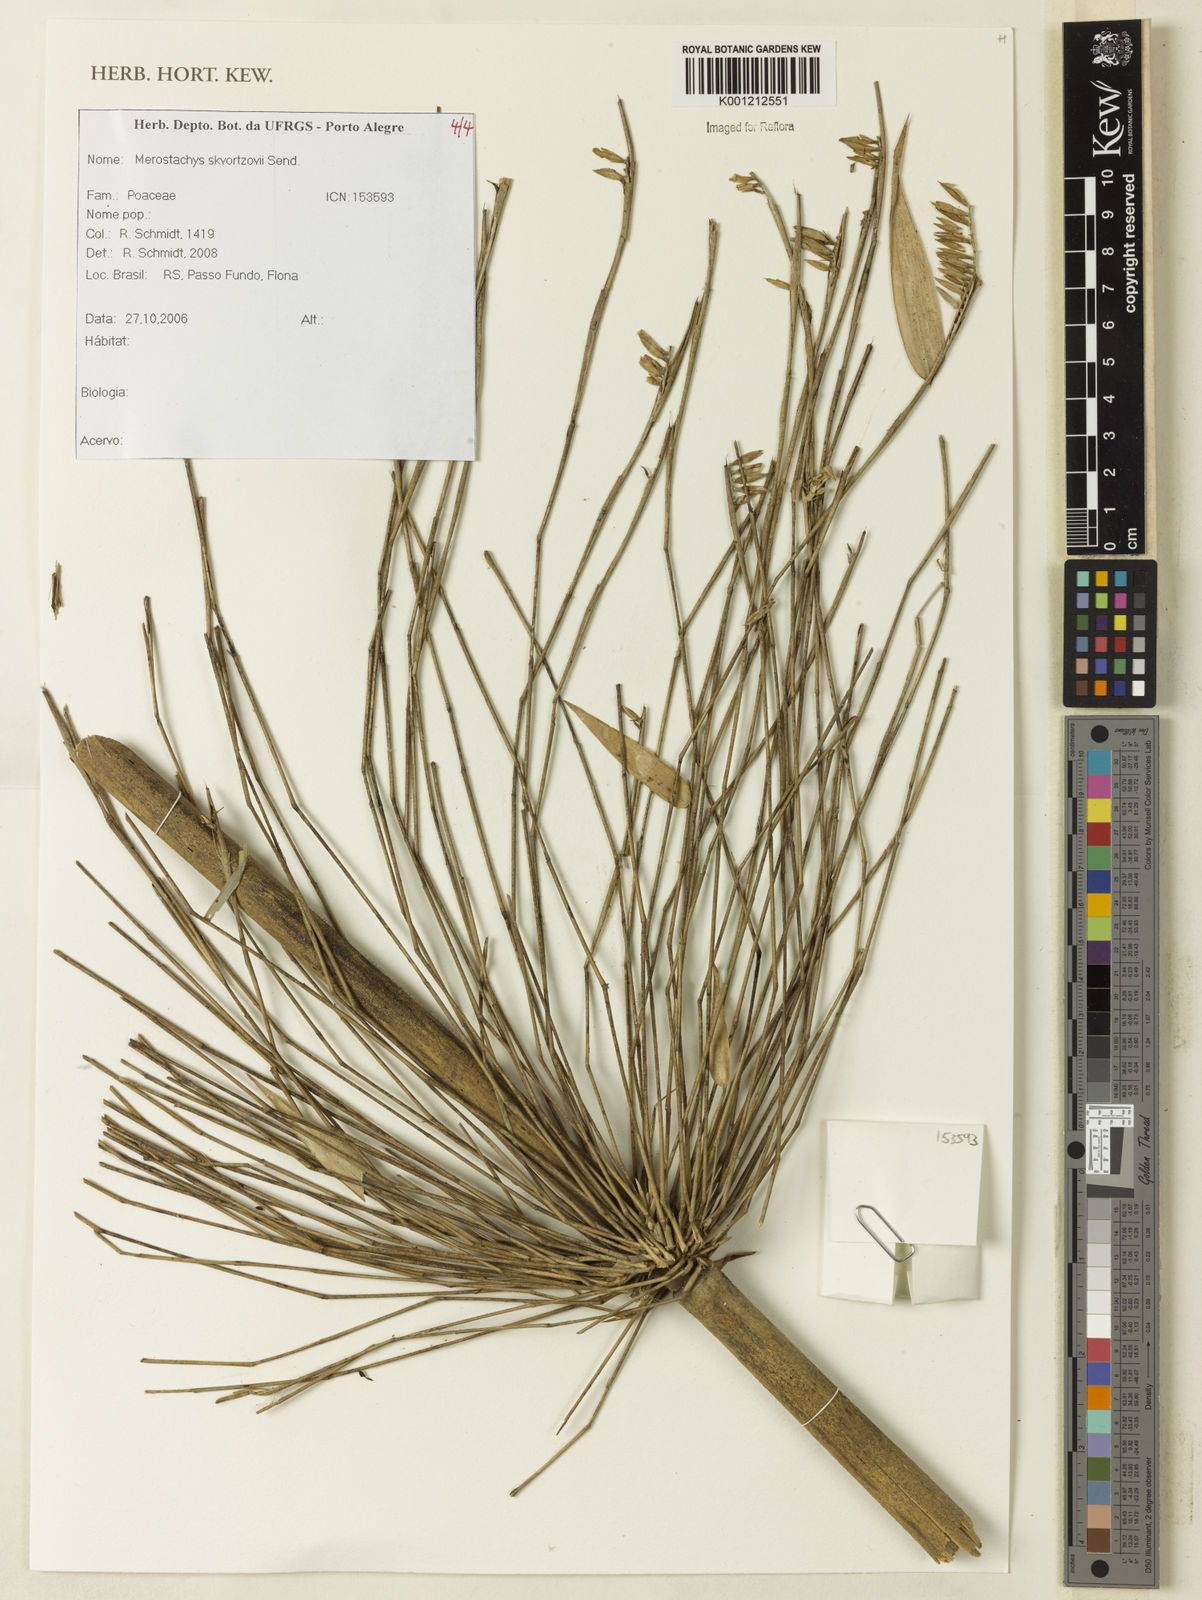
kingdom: Plantae
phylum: Tracheophyta
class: Liliopsida
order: Poales
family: Poaceae
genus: Merostachys
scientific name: Merostachys skvortzovii
